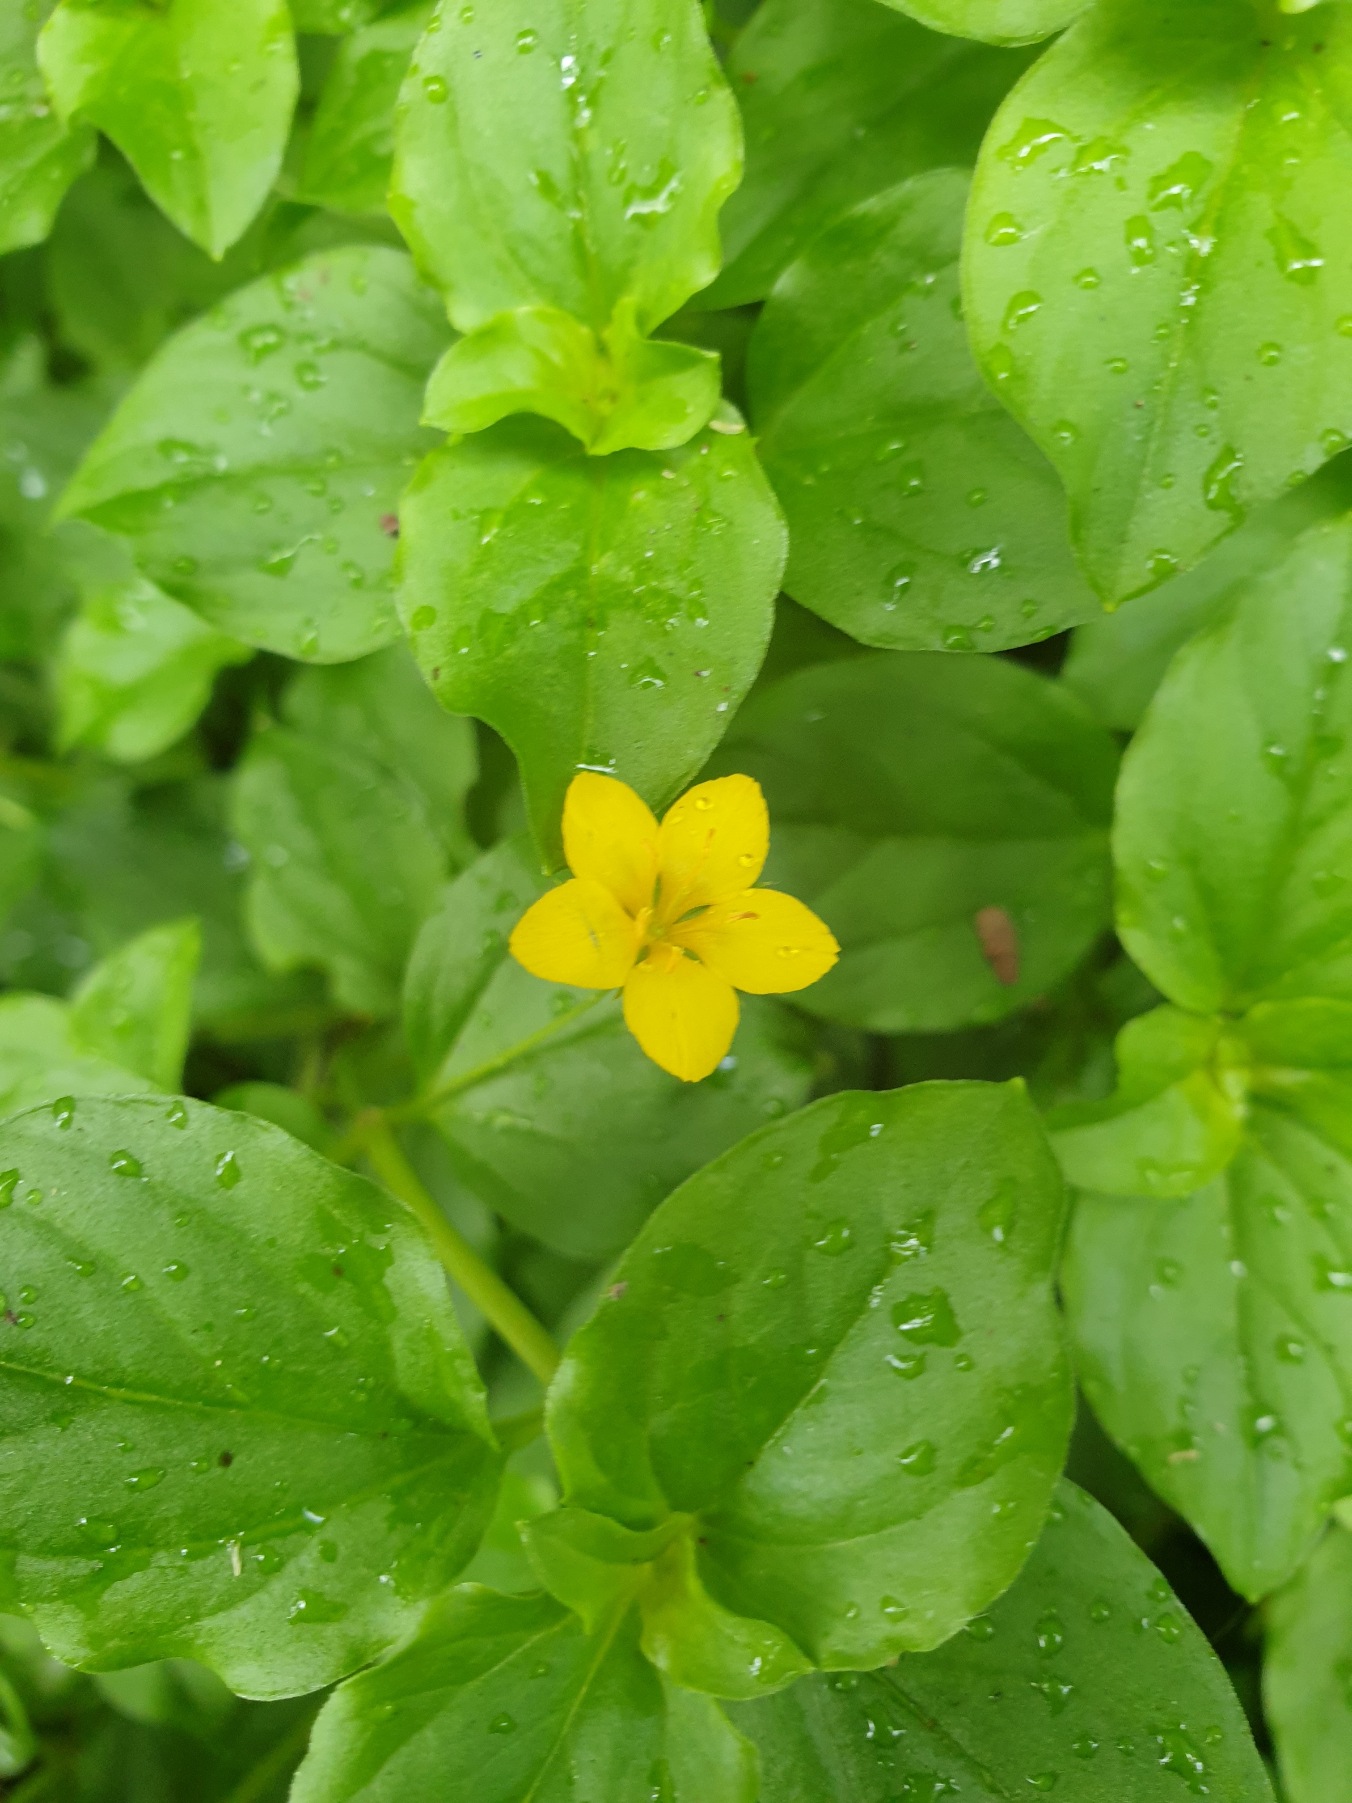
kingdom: Plantae
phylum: Tracheophyta
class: Magnoliopsida
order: Ericales
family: Primulaceae
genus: Lysimachia
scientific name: Lysimachia nemorum
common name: Lund-fredløs
